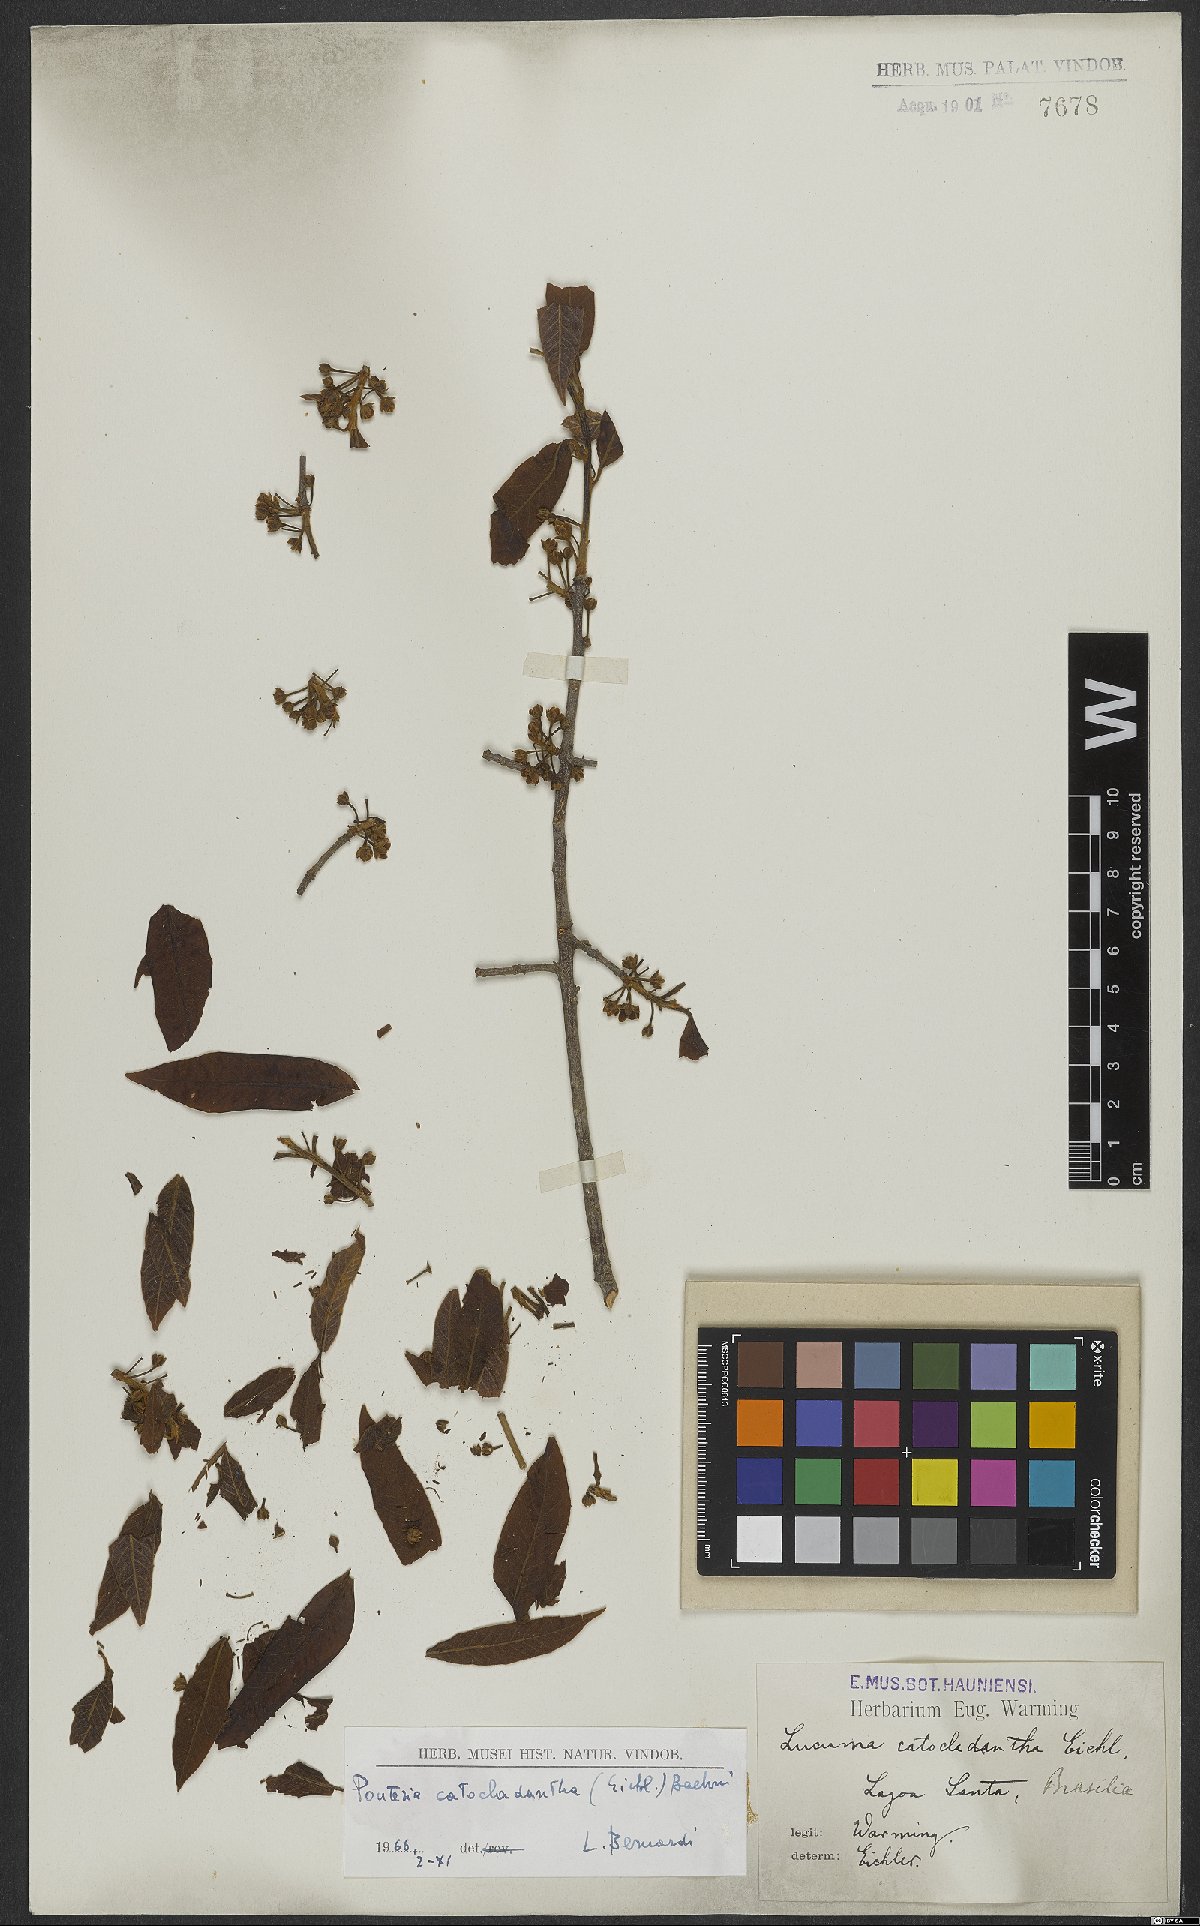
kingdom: Plantae
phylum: Tracheophyta
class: Magnoliopsida
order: Ericales
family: Sapotaceae
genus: Pouteria
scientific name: Pouteria gardneri
